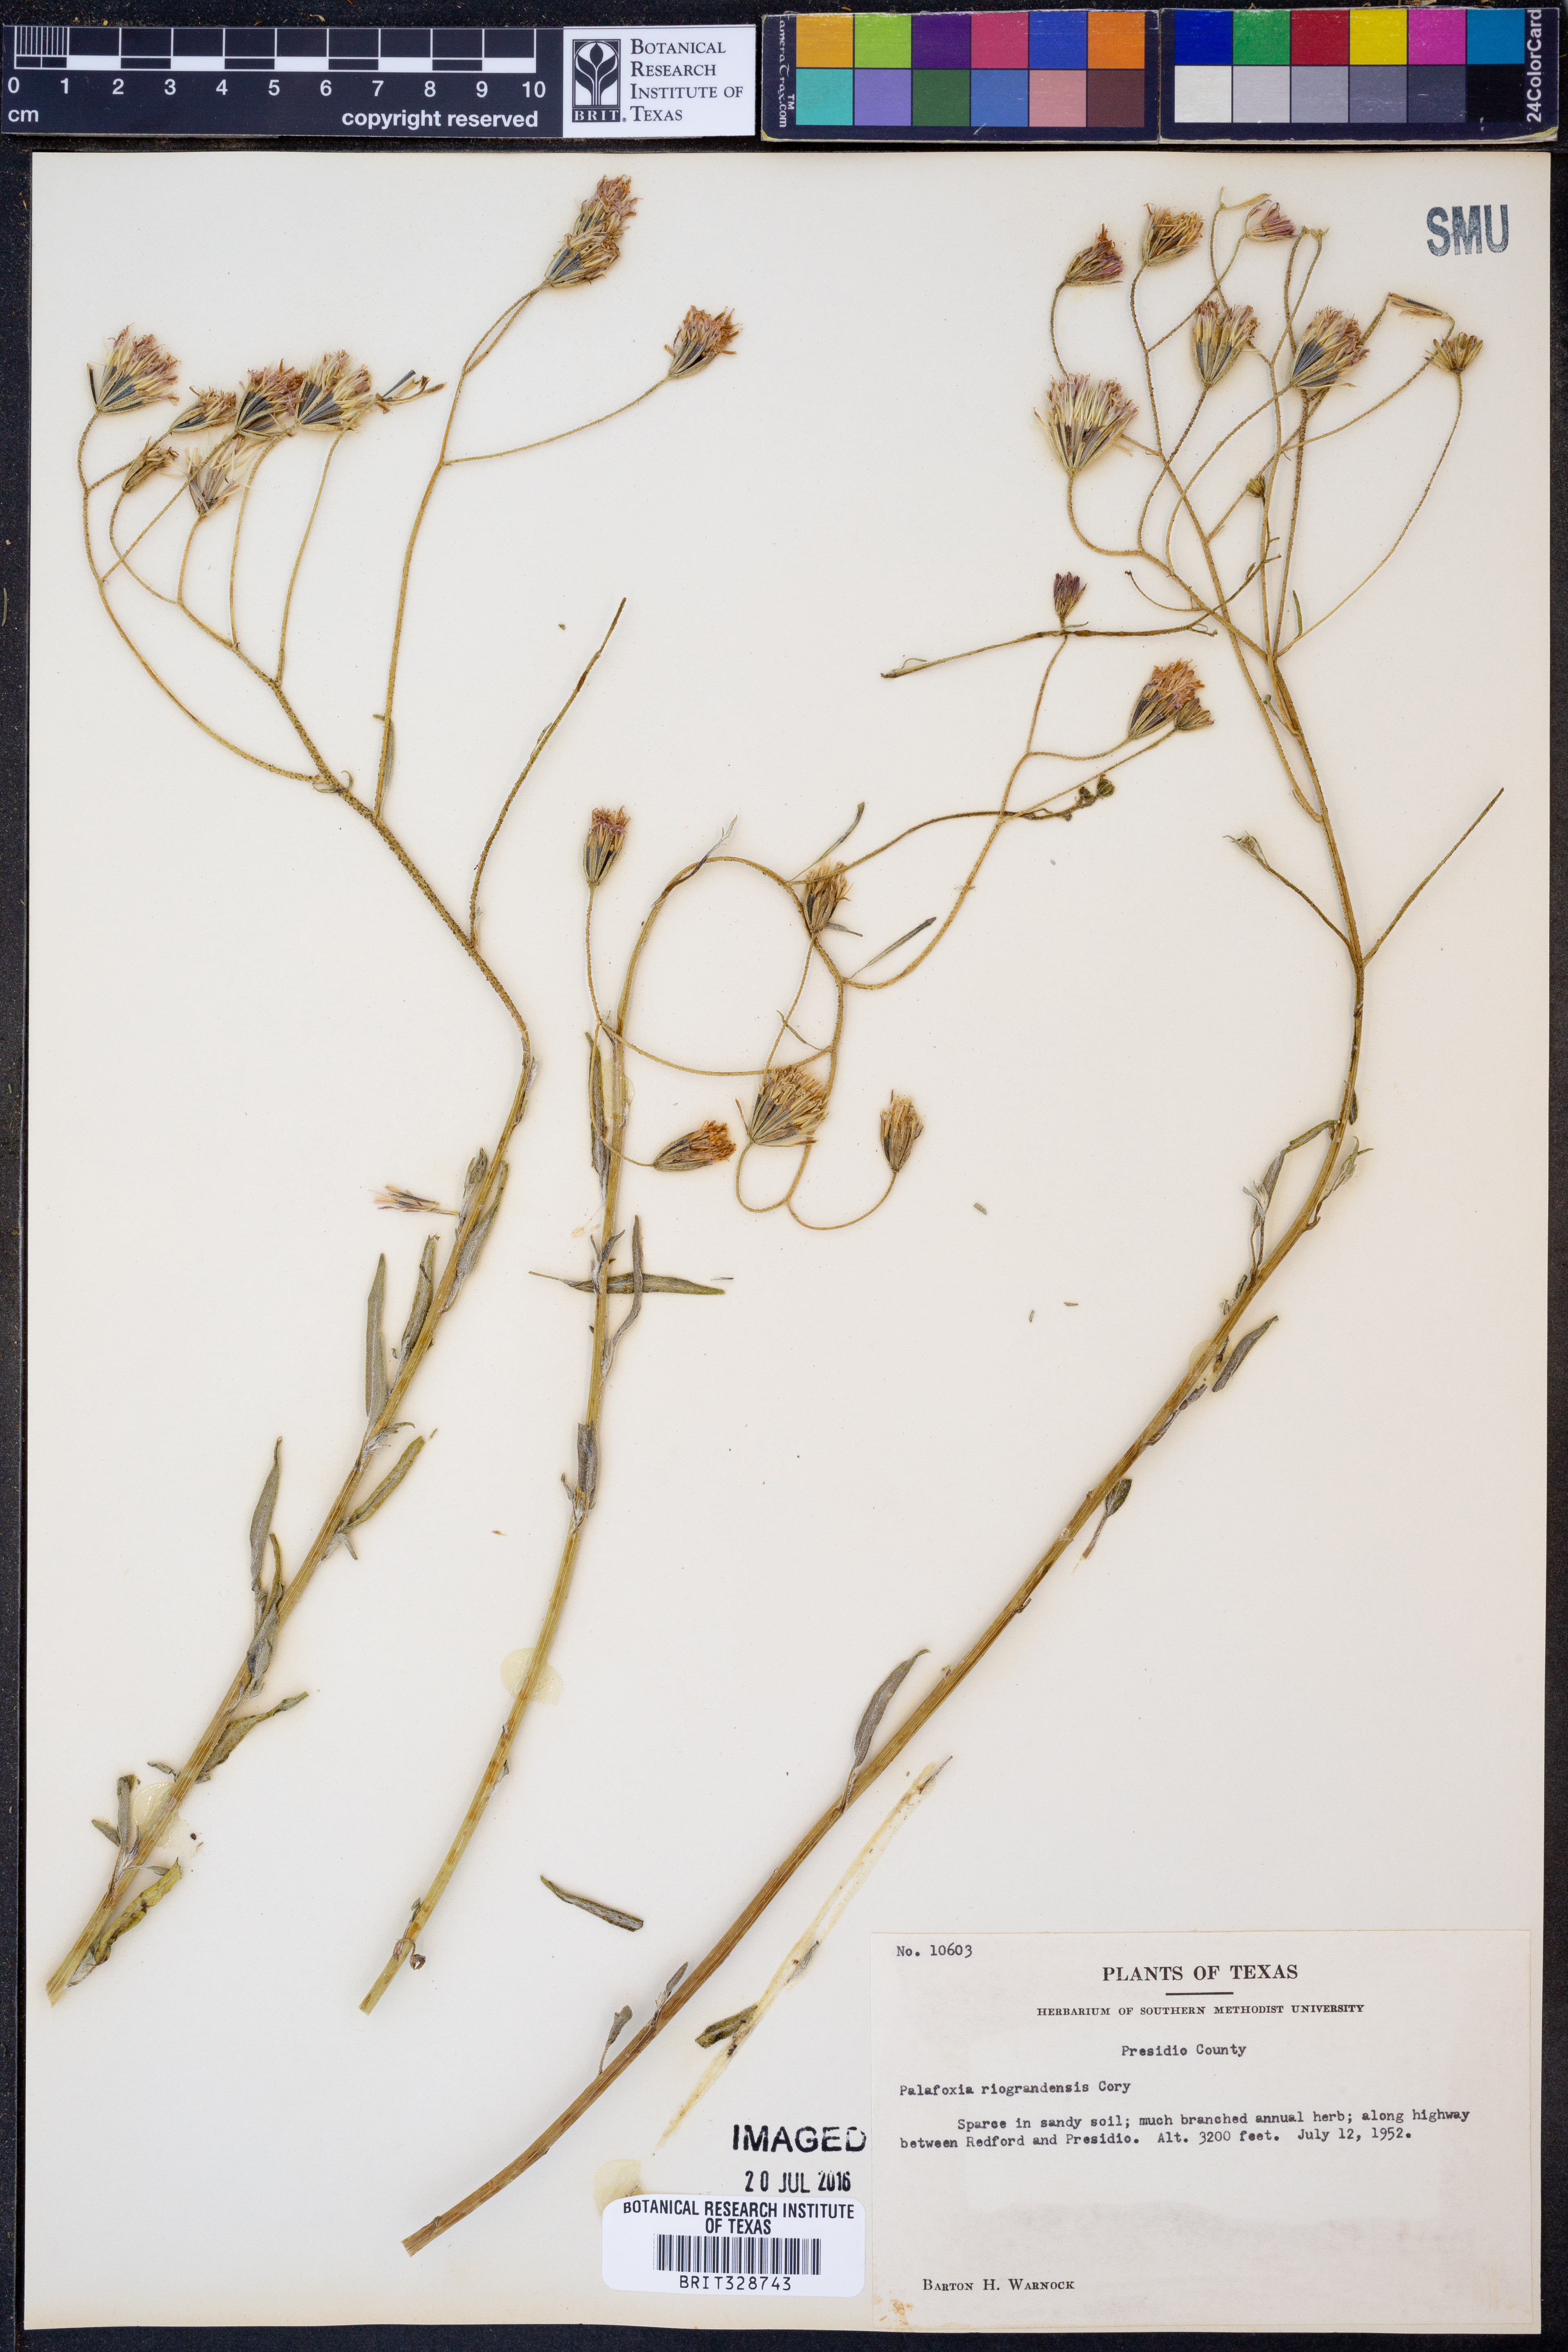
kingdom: Plantae
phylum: Tracheophyta
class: Magnoliopsida
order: Asterales
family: Asteraceae
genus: Palafoxia
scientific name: Palafoxia riograndensis
